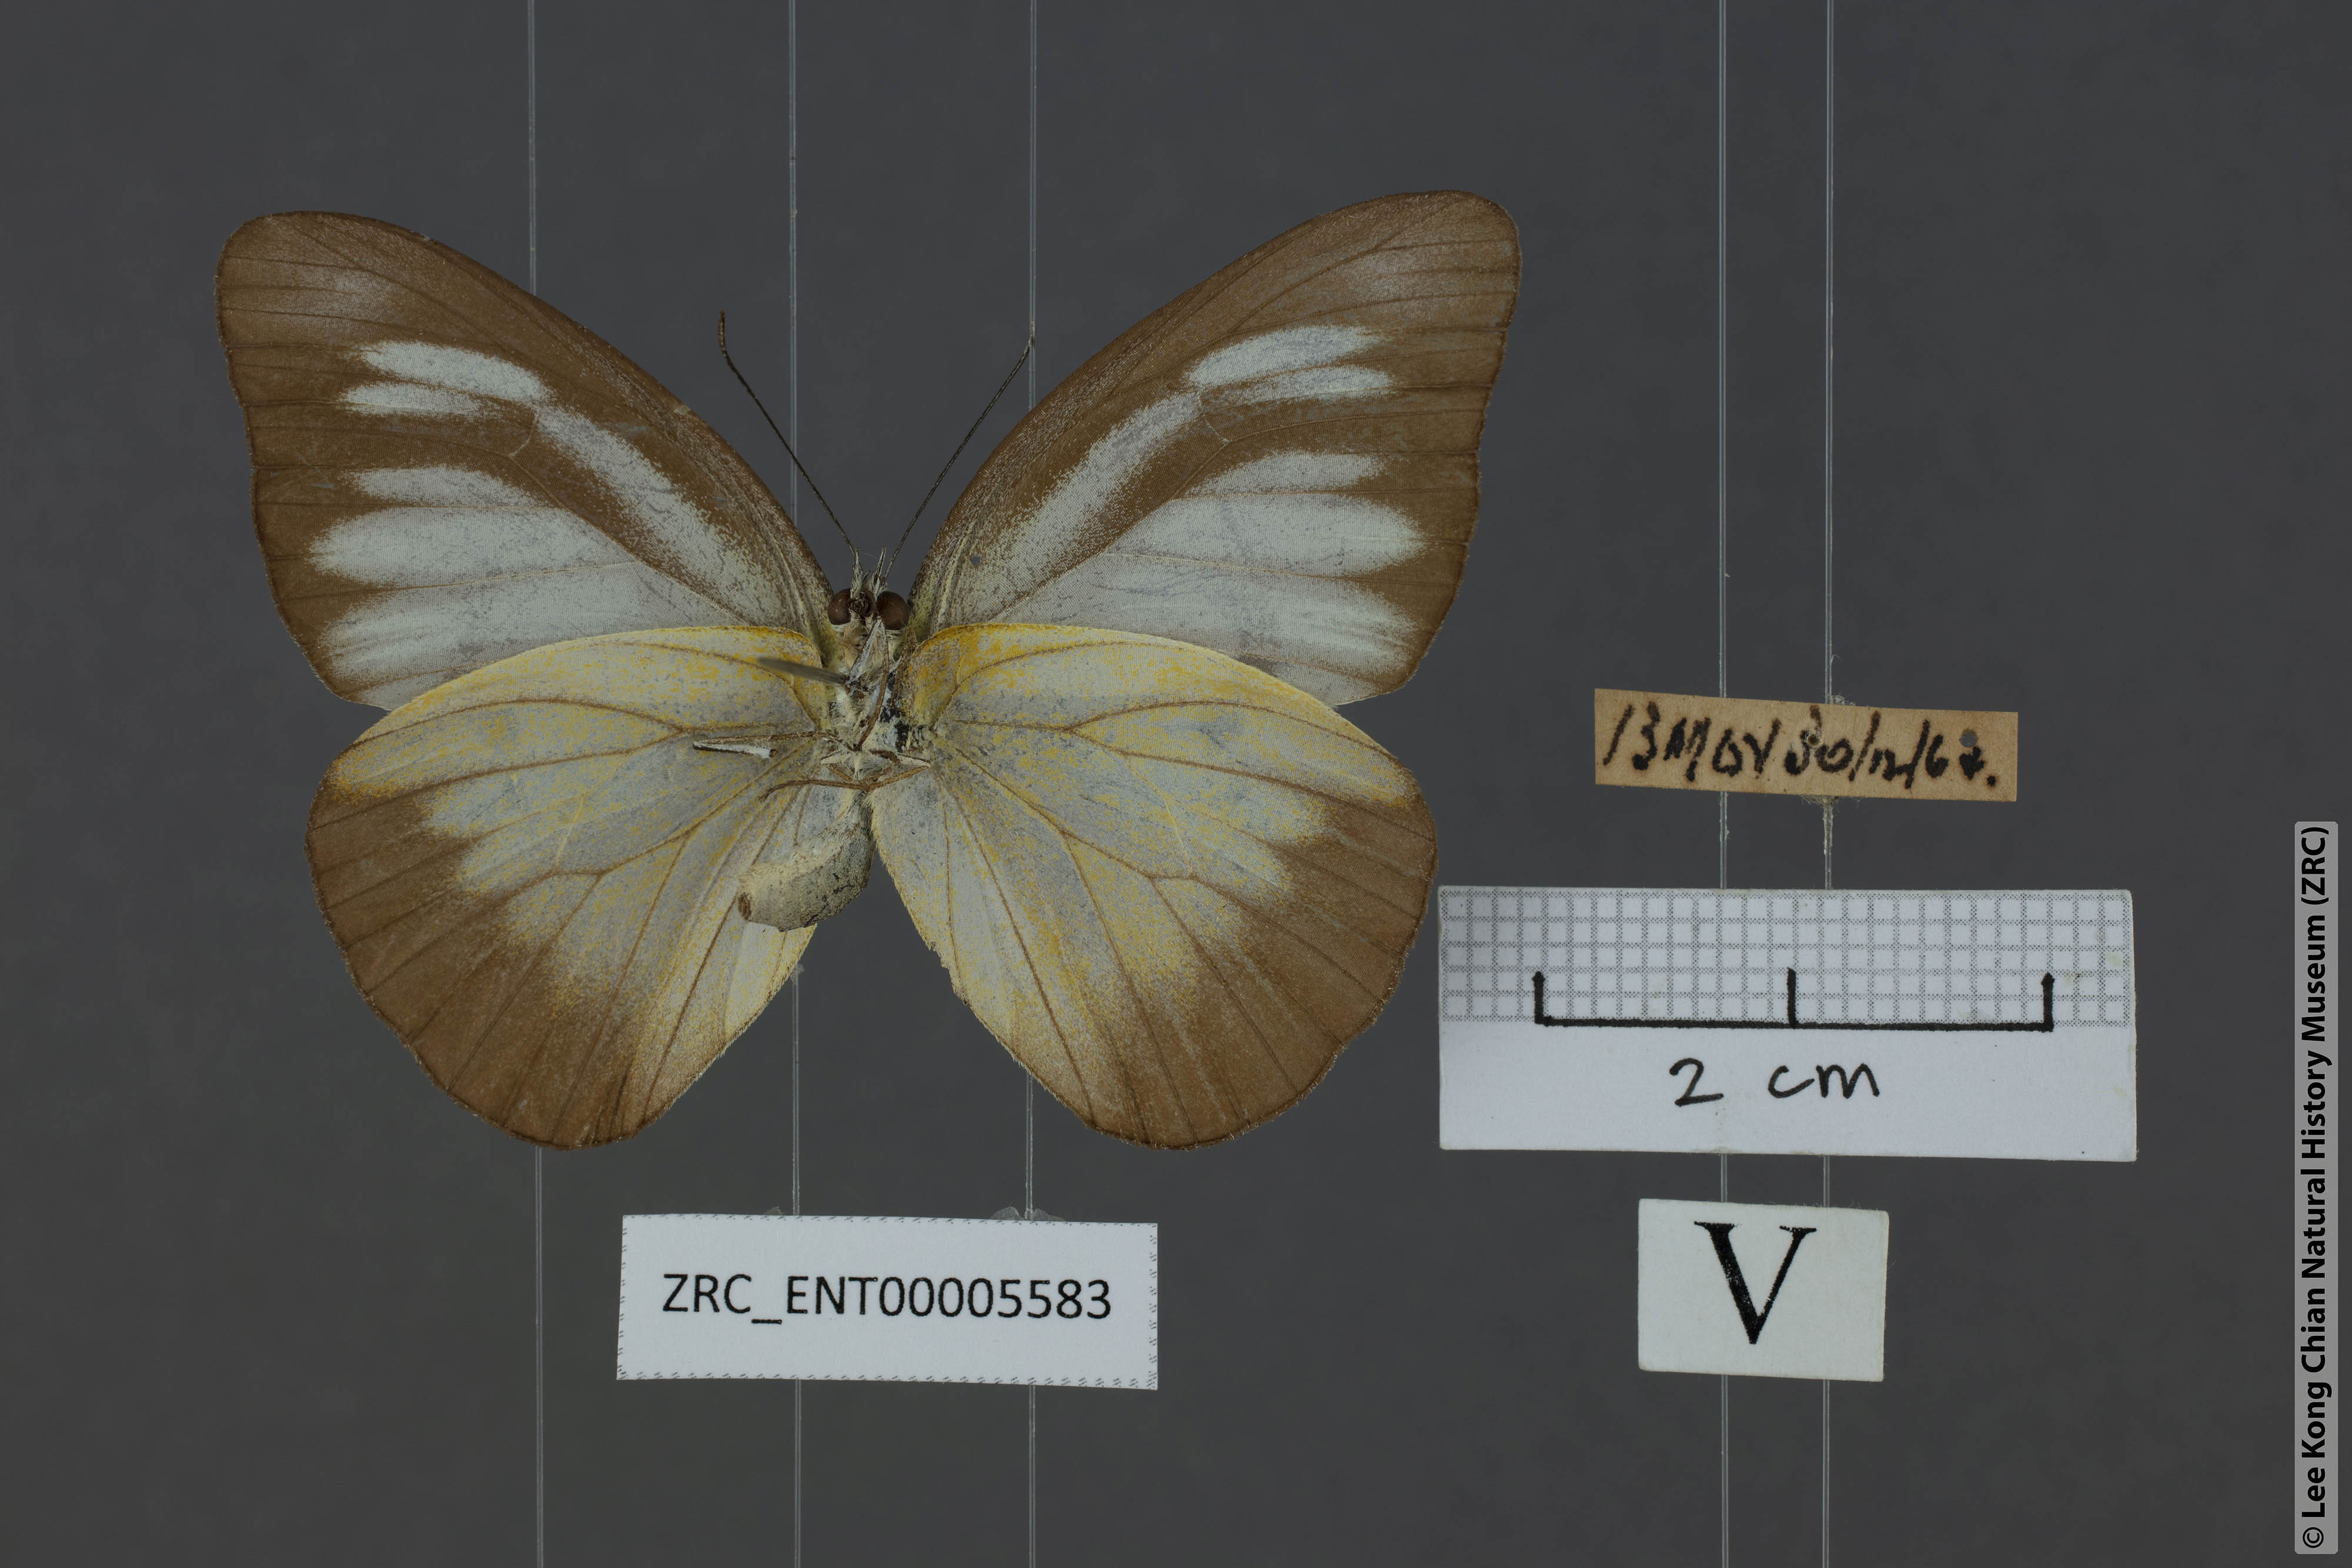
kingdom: Animalia
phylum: Arthropoda
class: Insecta
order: Lepidoptera
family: Pieridae
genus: Appias
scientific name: Appias lyncida
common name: Chocolate albatross
